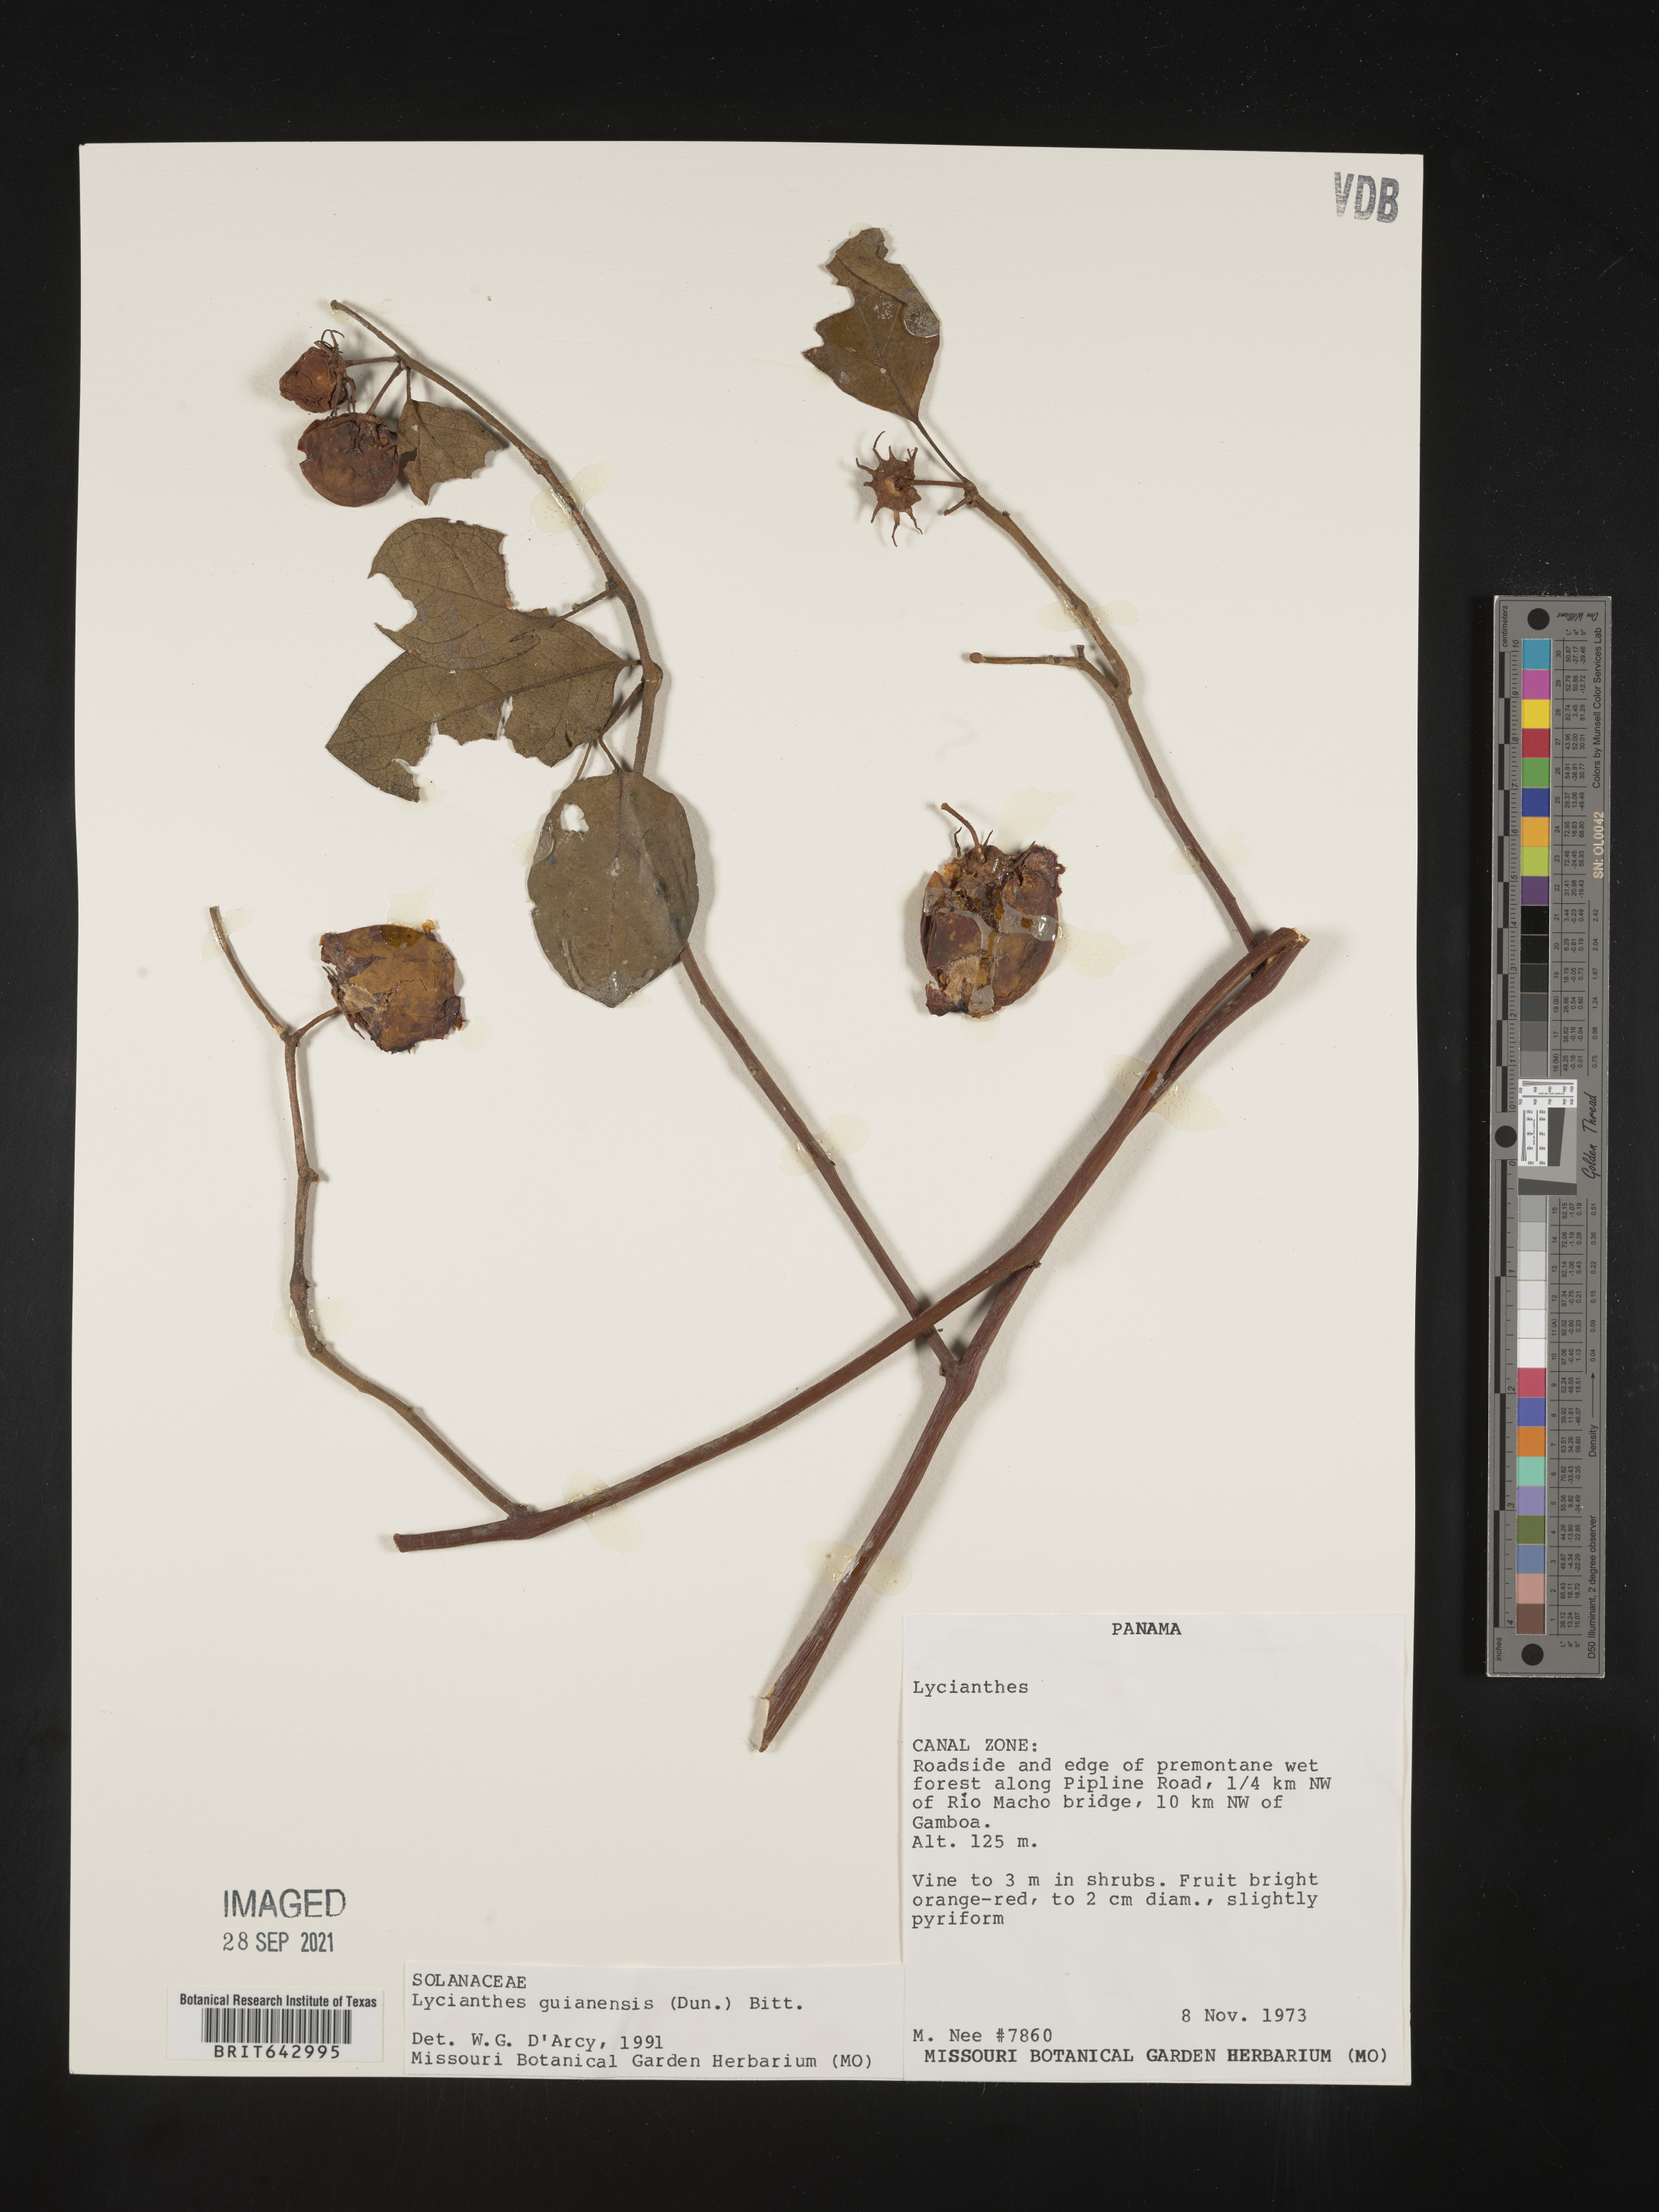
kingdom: Plantae
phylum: Tracheophyta
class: Magnoliopsida
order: Solanales
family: Solanaceae
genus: Lycianthes
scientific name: Lycianthes
